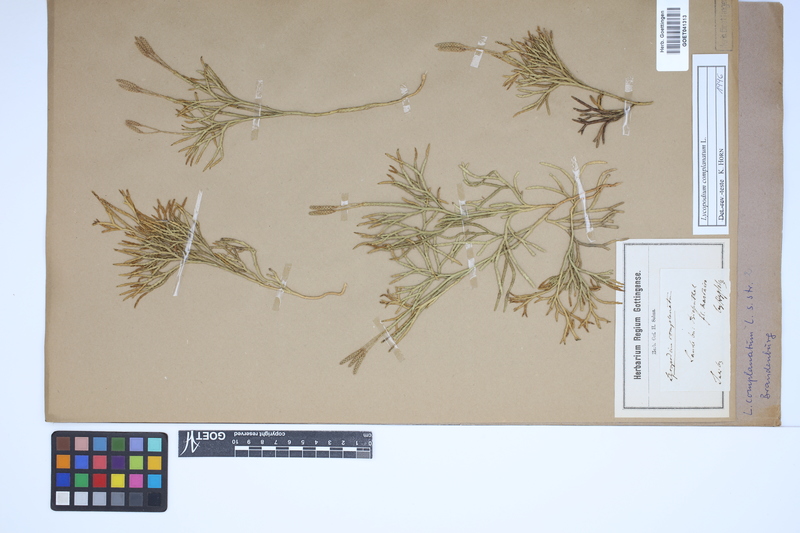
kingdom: Plantae
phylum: Tracheophyta
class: Lycopodiopsida
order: Lycopodiales
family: Lycopodiaceae
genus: Diphasiastrum
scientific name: Diphasiastrum complanatum
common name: Northern running-pine
